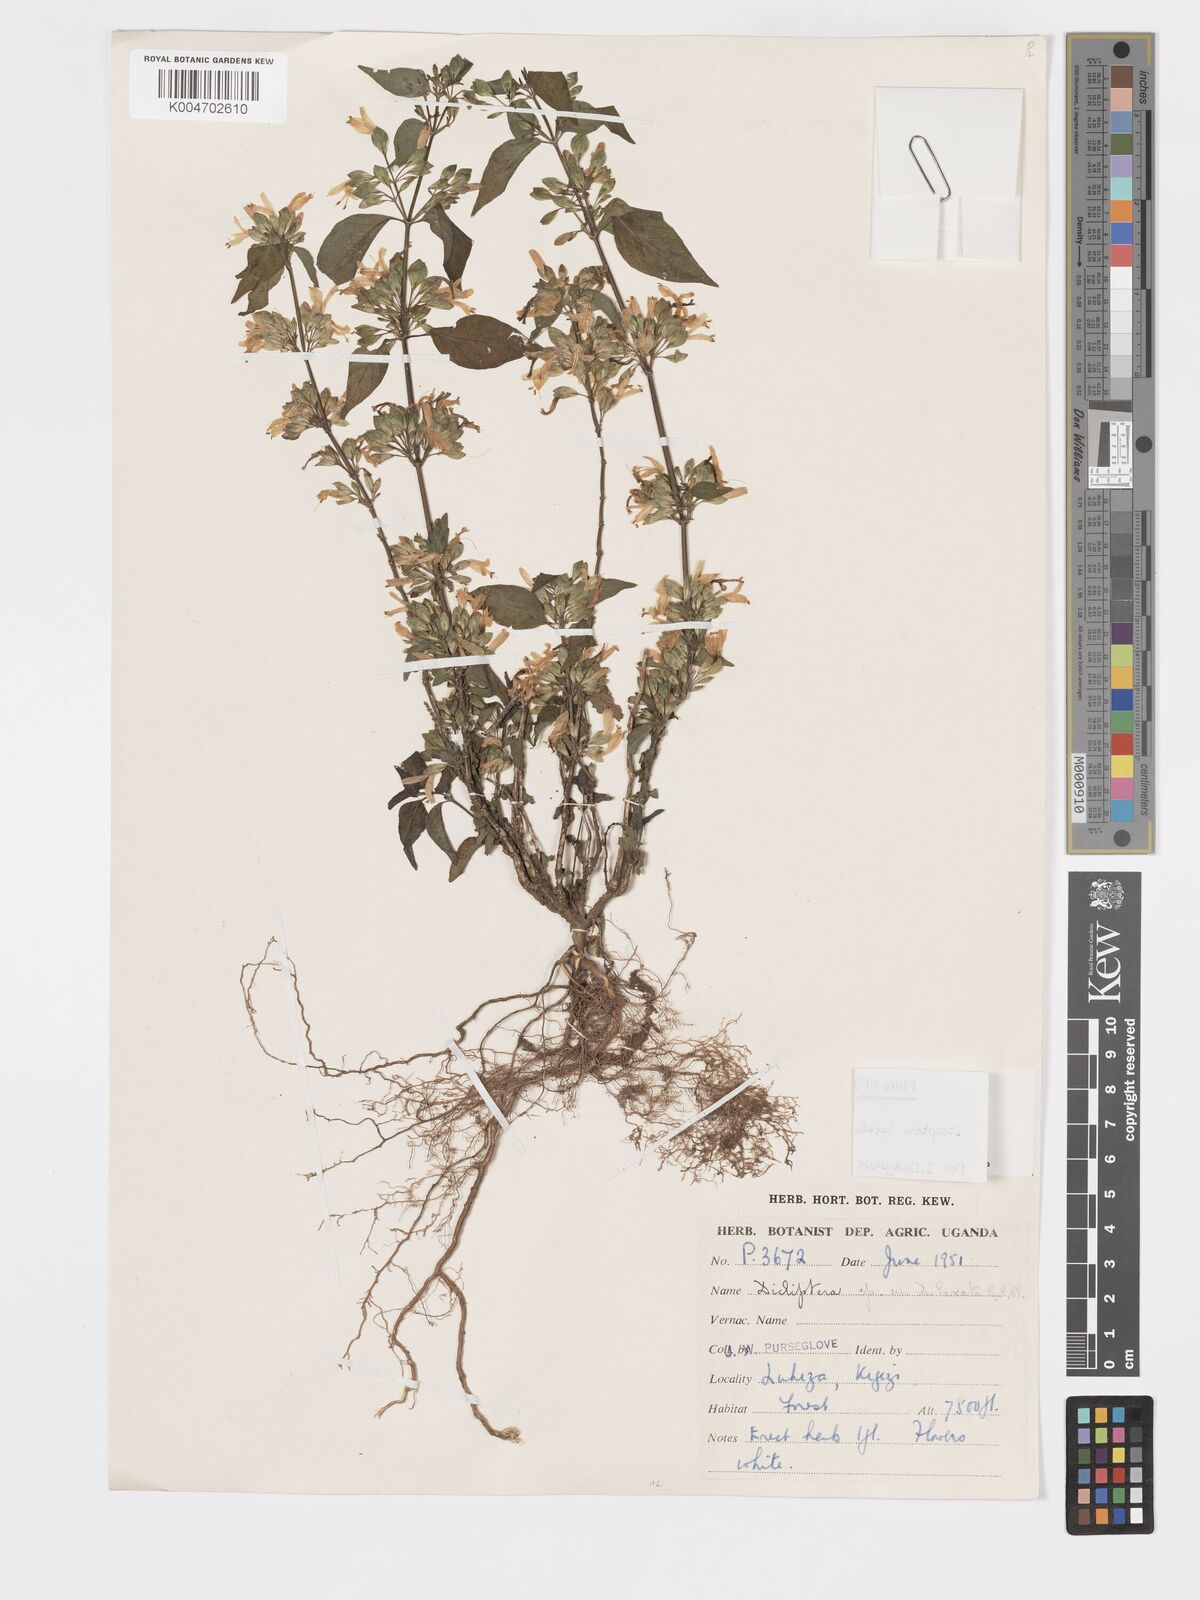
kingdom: Plantae
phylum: Tracheophyta
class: Magnoliopsida
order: Lamiales
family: Acanthaceae
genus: Dicliptera
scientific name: Dicliptera laxata
